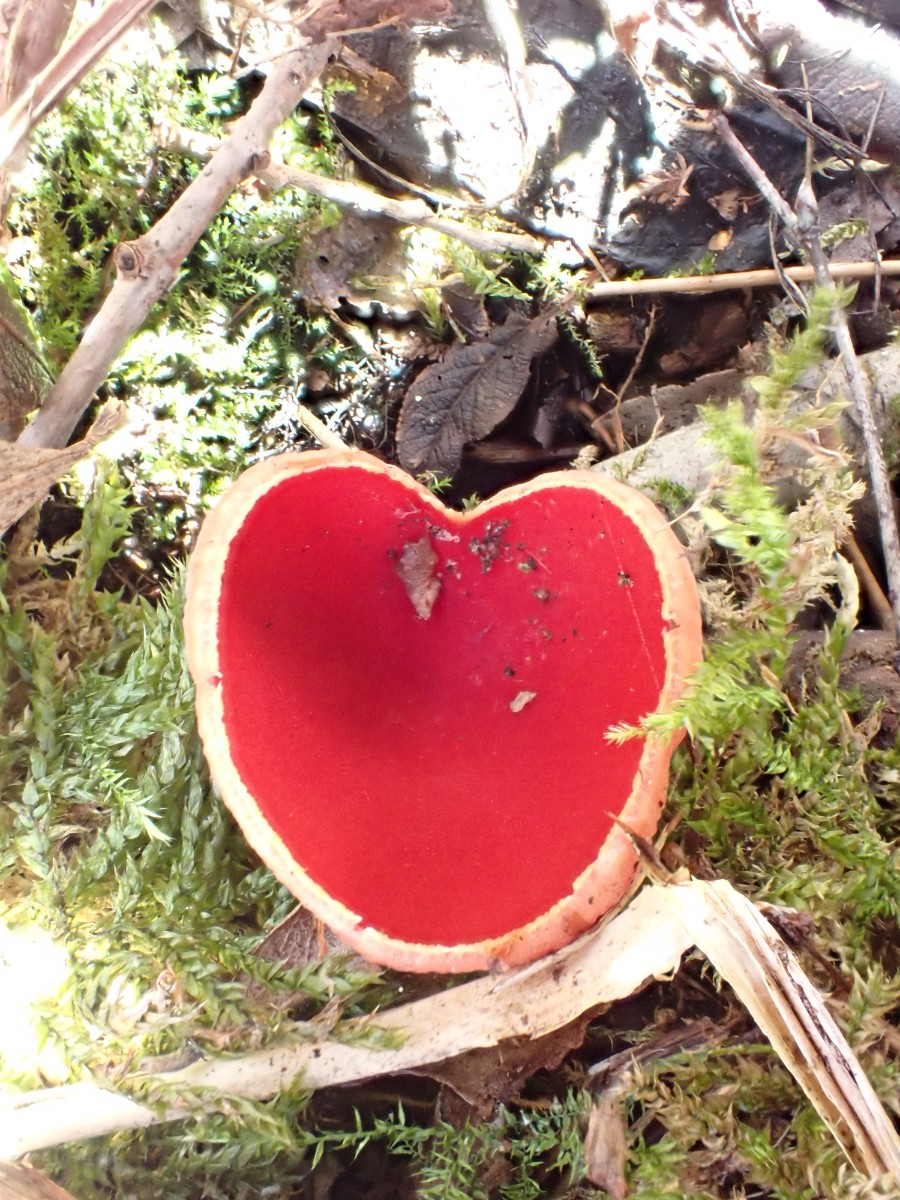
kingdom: Fungi
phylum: Ascomycota
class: Pezizomycetes
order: Pezizales
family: Sarcoscyphaceae
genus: Sarcoscypha
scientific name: Sarcoscypha austriaca
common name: krølhåret pragtbæger
